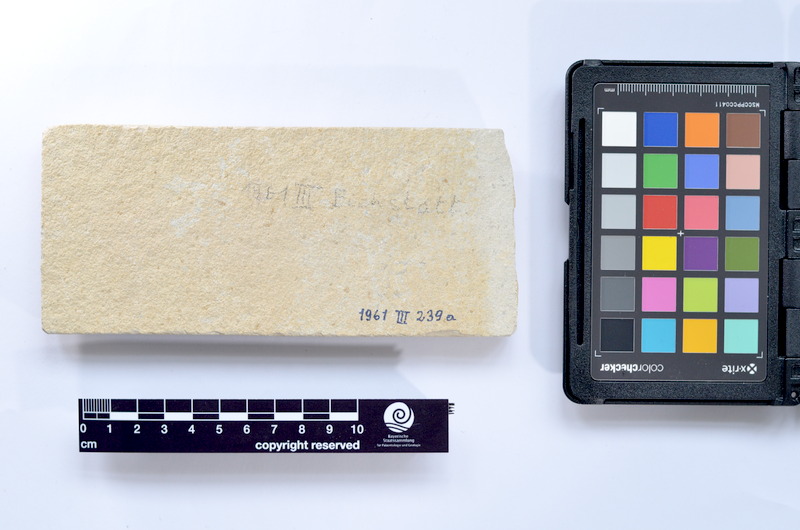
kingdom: Animalia
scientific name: Animalia
